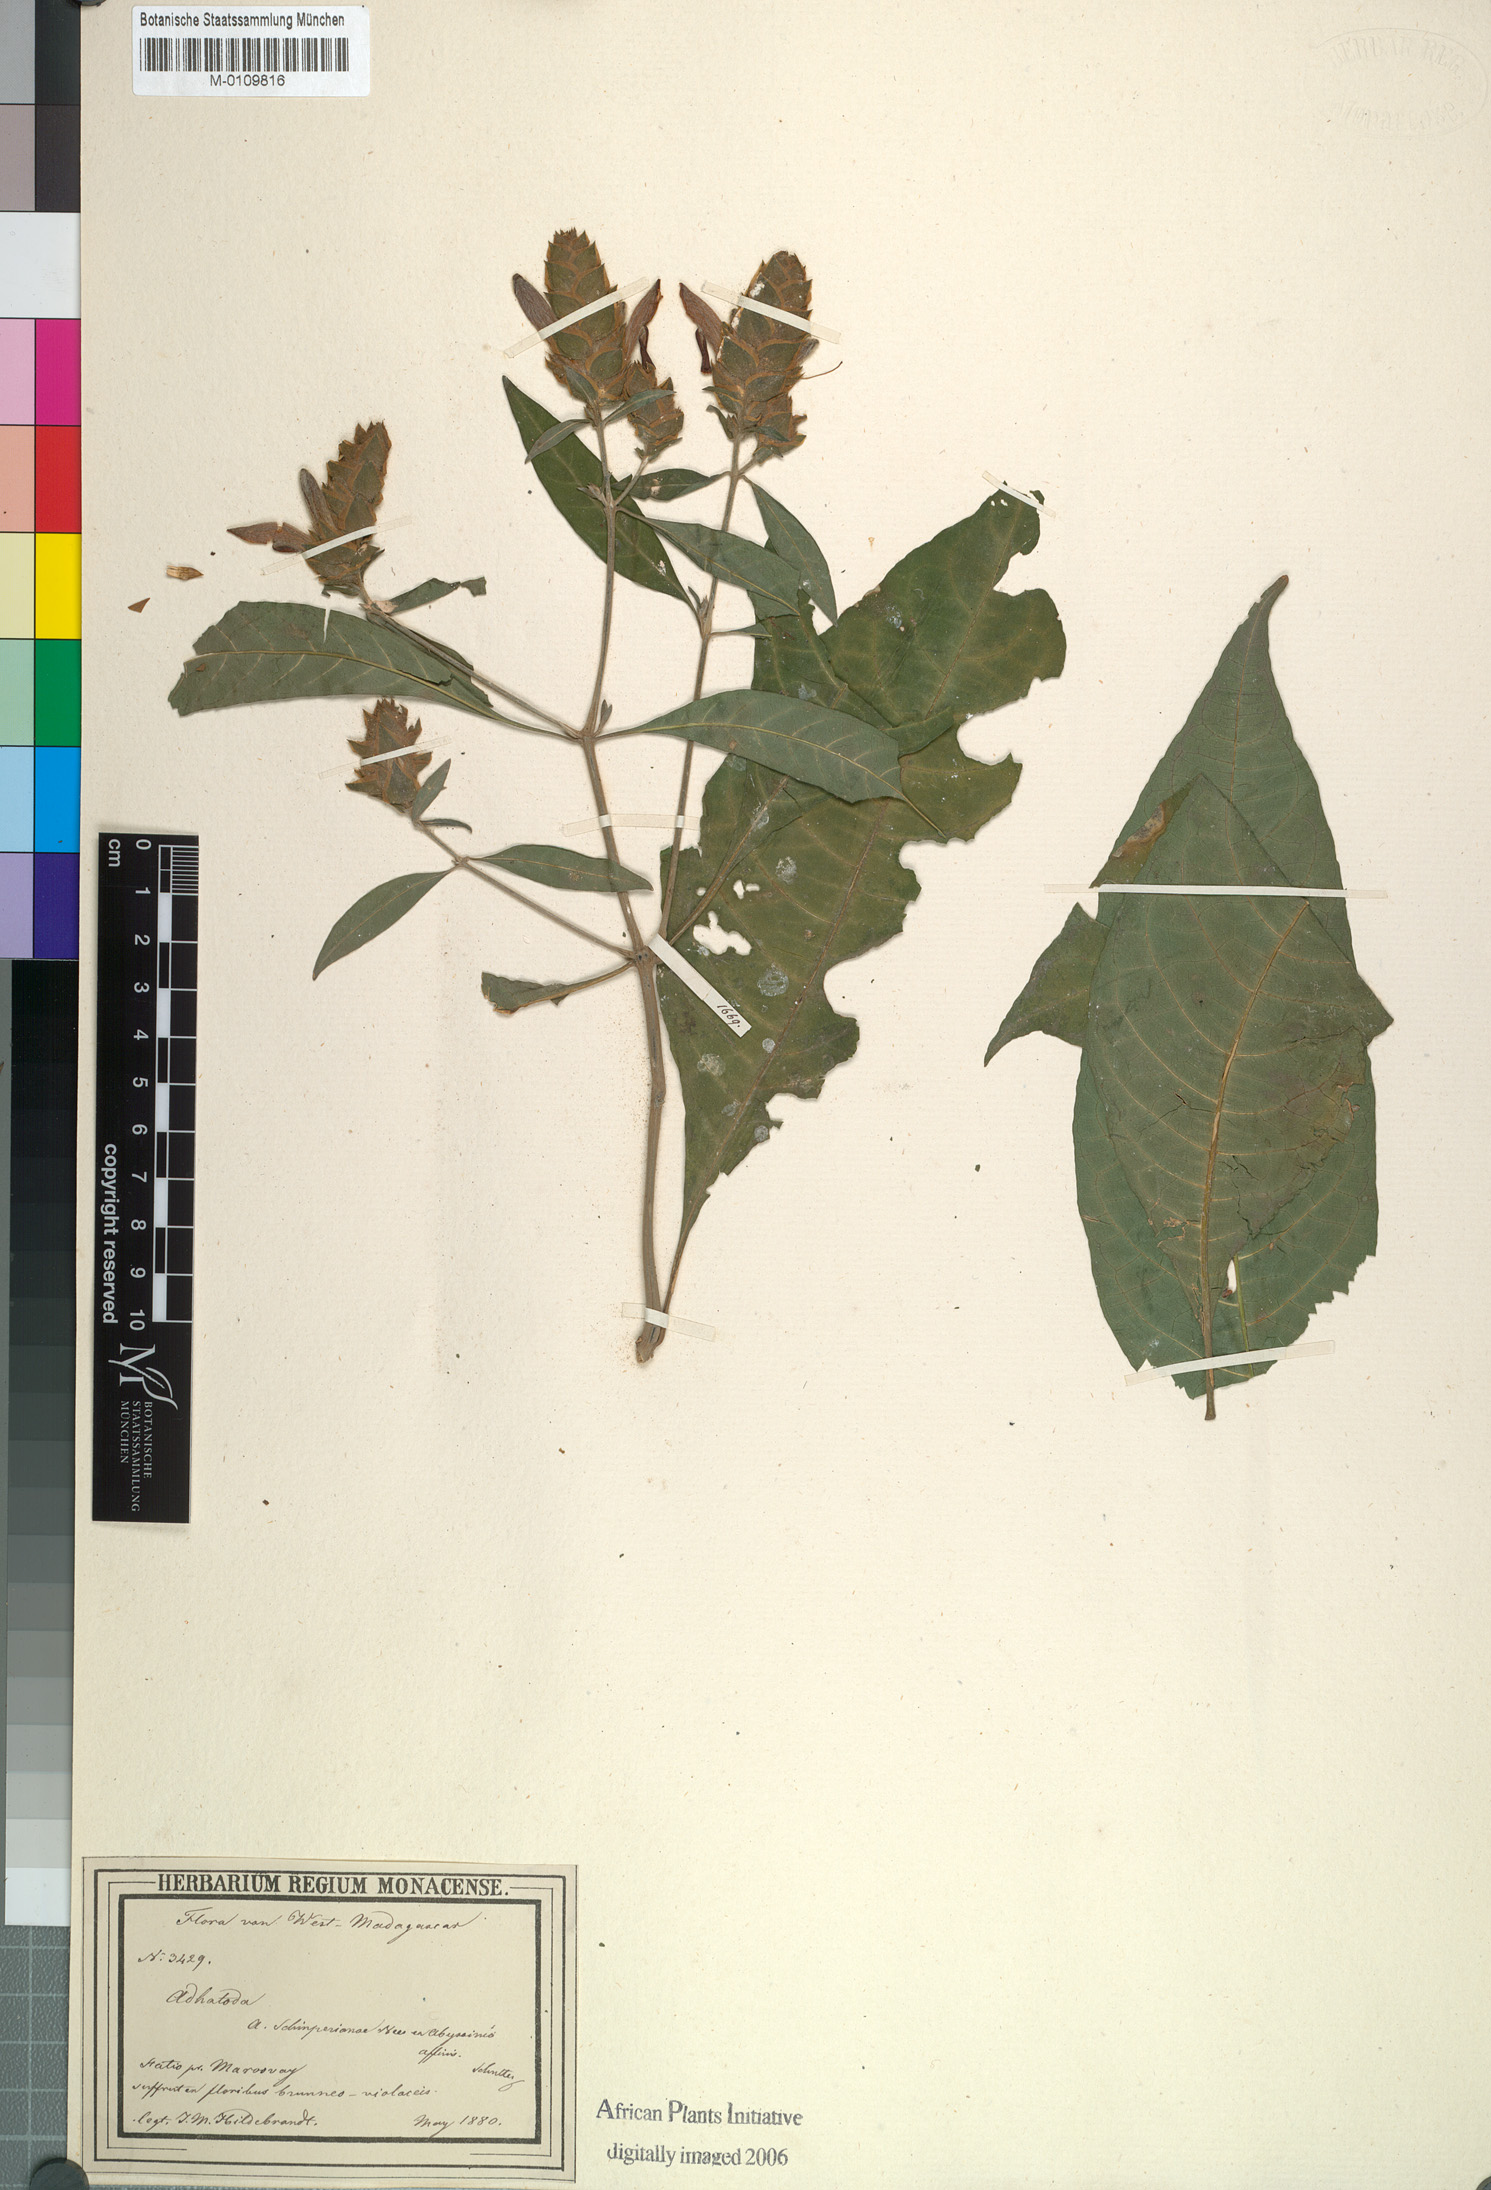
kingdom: Plantae
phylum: Tracheophyta
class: Magnoliopsida
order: Lamiales
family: Acanthaceae
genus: Justicia
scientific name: Justicia madagascariensis
